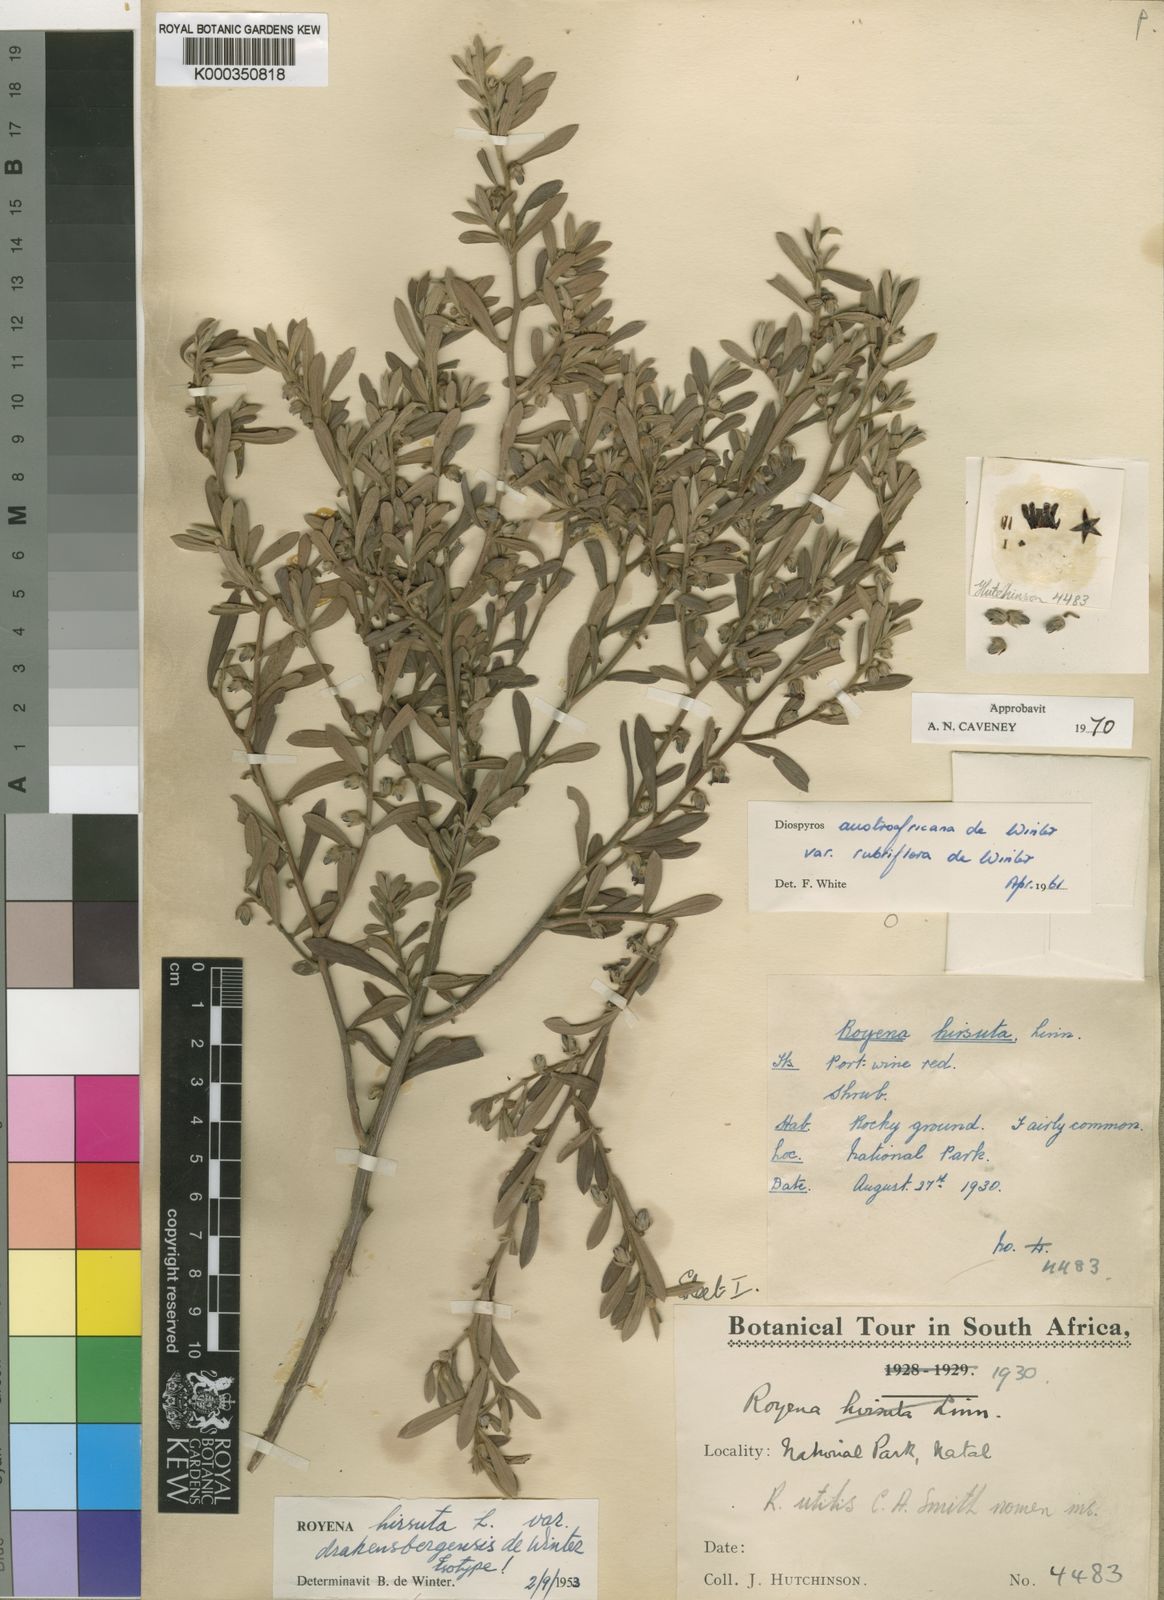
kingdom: Plantae
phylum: Tracheophyta
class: Magnoliopsida
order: Ericales
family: Ebenaceae
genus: Diospyros
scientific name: Diospyros pubescens
